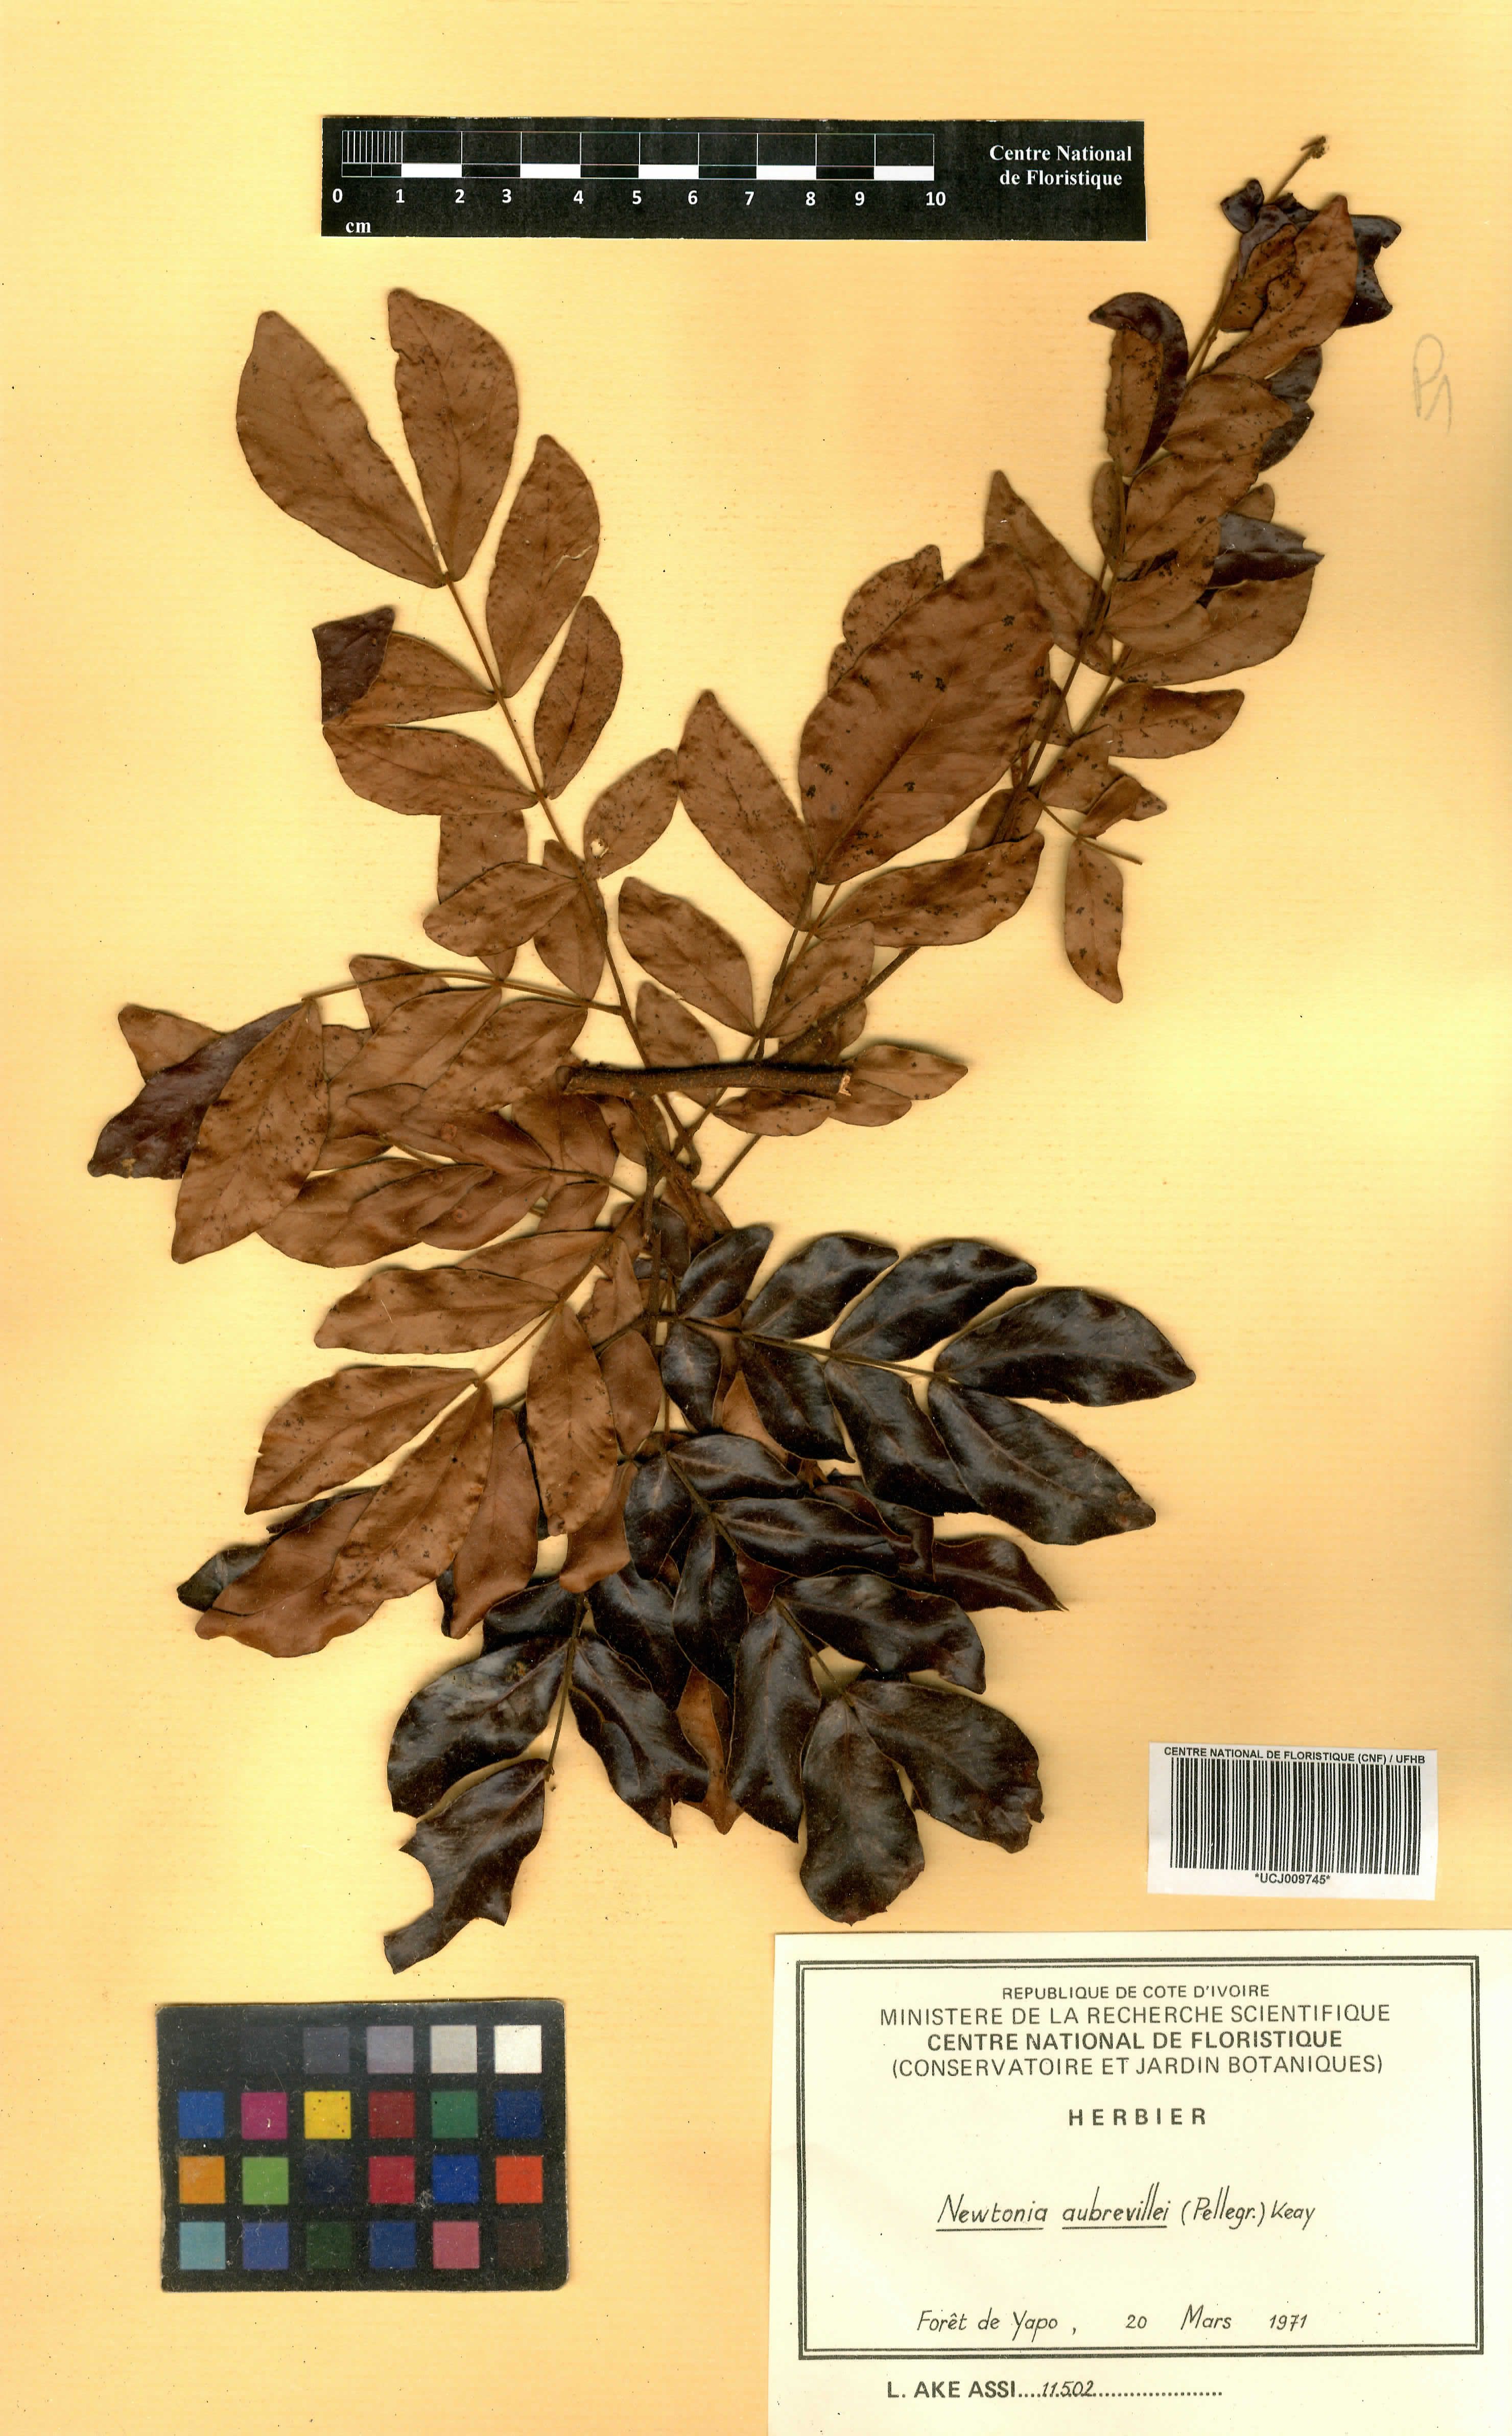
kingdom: Plantae
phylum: Tracheophyta
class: Magnoliopsida
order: Fabales
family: Fabaceae
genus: Newtonia
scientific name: Newtonia aubrevillei
